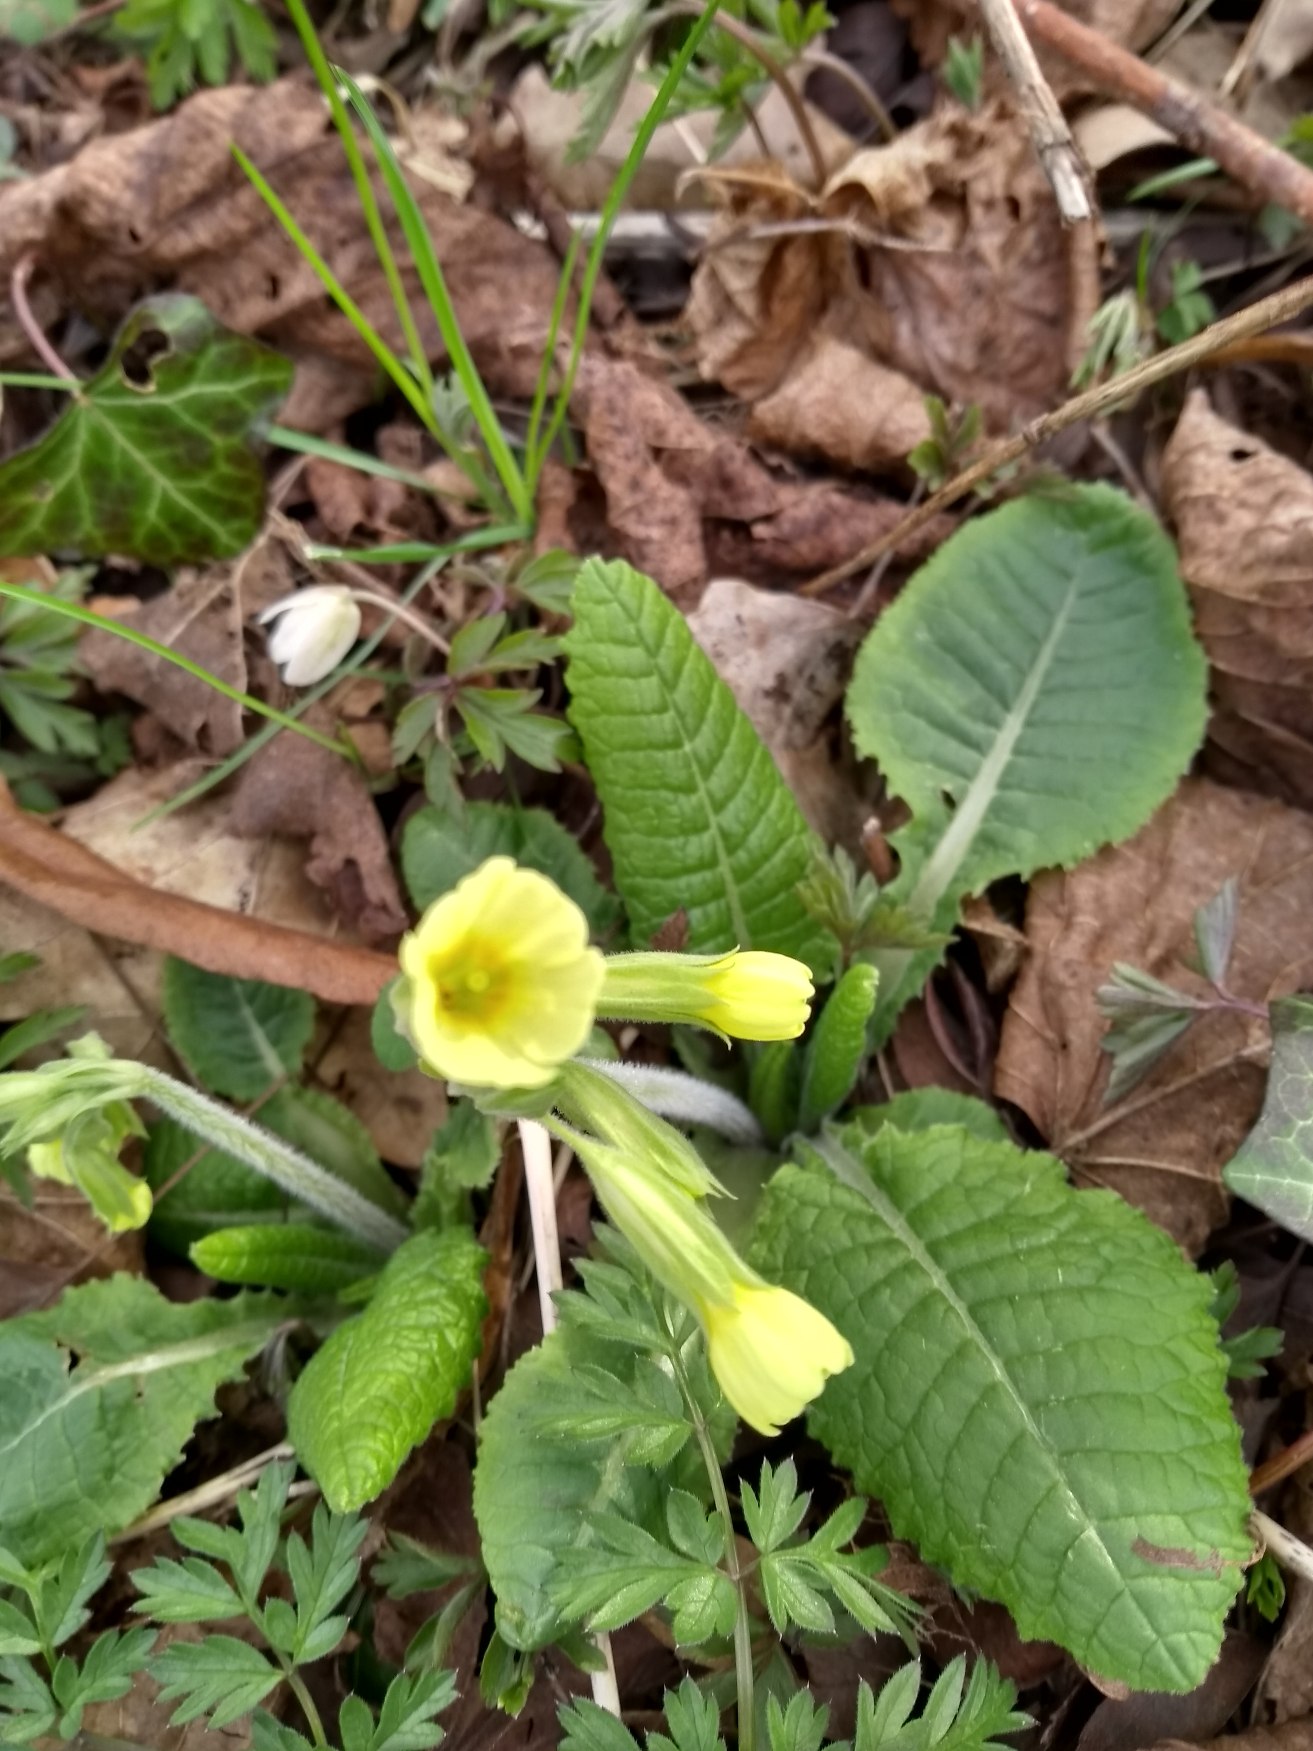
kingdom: Plantae
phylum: Tracheophyta
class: Magnoliopsida
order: Ericales
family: Primulaceae
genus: Primula
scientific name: Primula elatior
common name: Fladkravet kodriver
